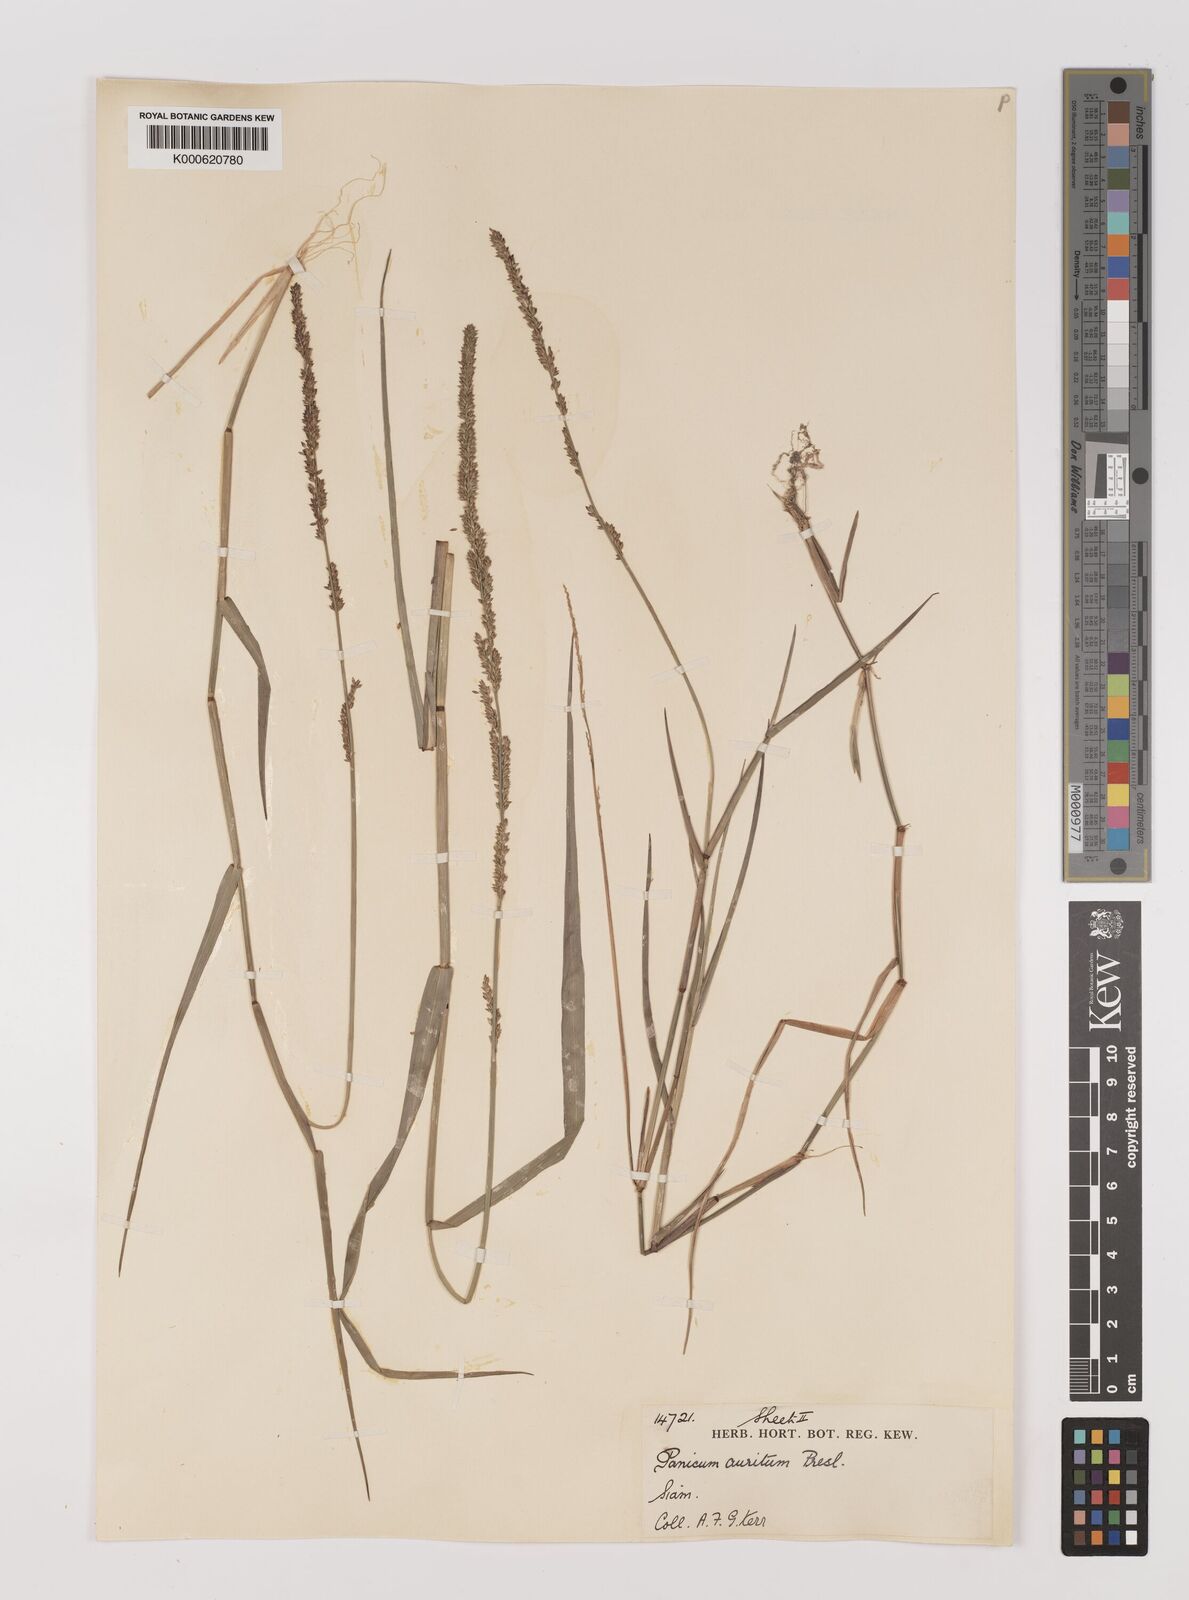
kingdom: Plantae
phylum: Tracheophyta
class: Liliopsida
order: Poales
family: Poaceae
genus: Hymenachne
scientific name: Hymenachne aurita
